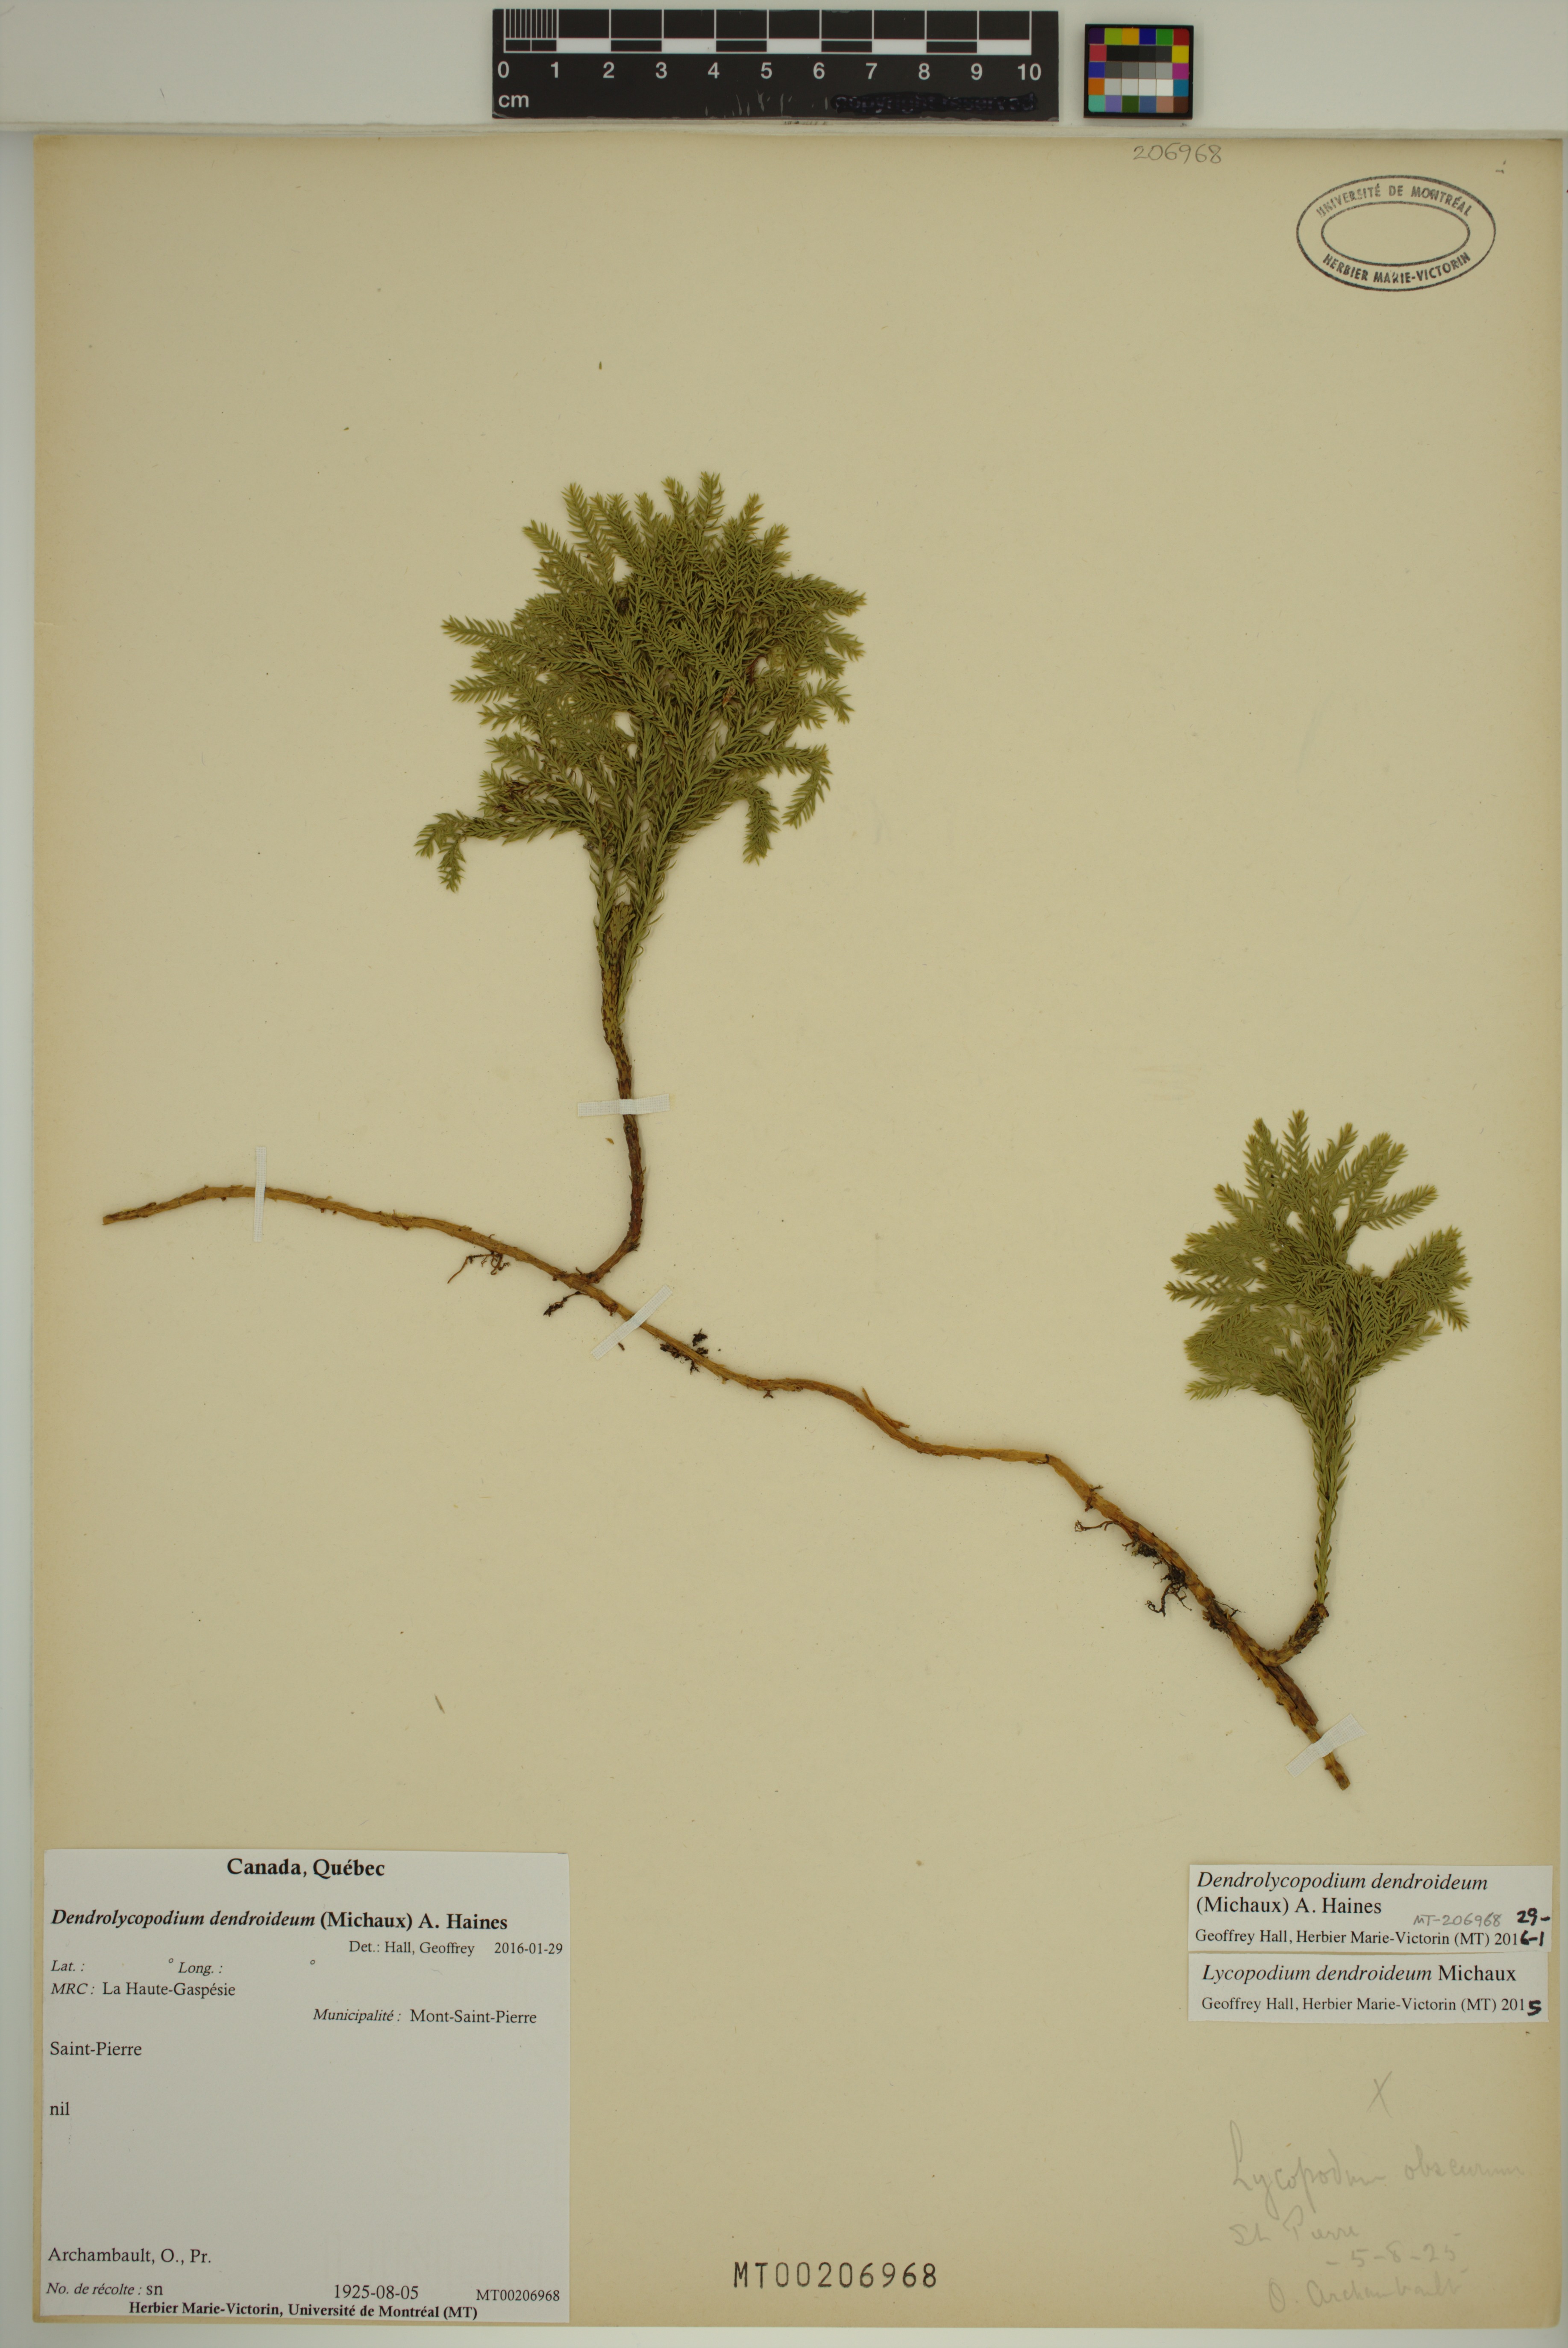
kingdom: Plantae
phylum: Tracheophyta
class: Lycopodiopsida
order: Lycopodiales
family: Lycopodiaceae
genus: Dendrolycopodium
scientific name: Dendrolycopodium dendroideum
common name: Northern tree-clubmoss
